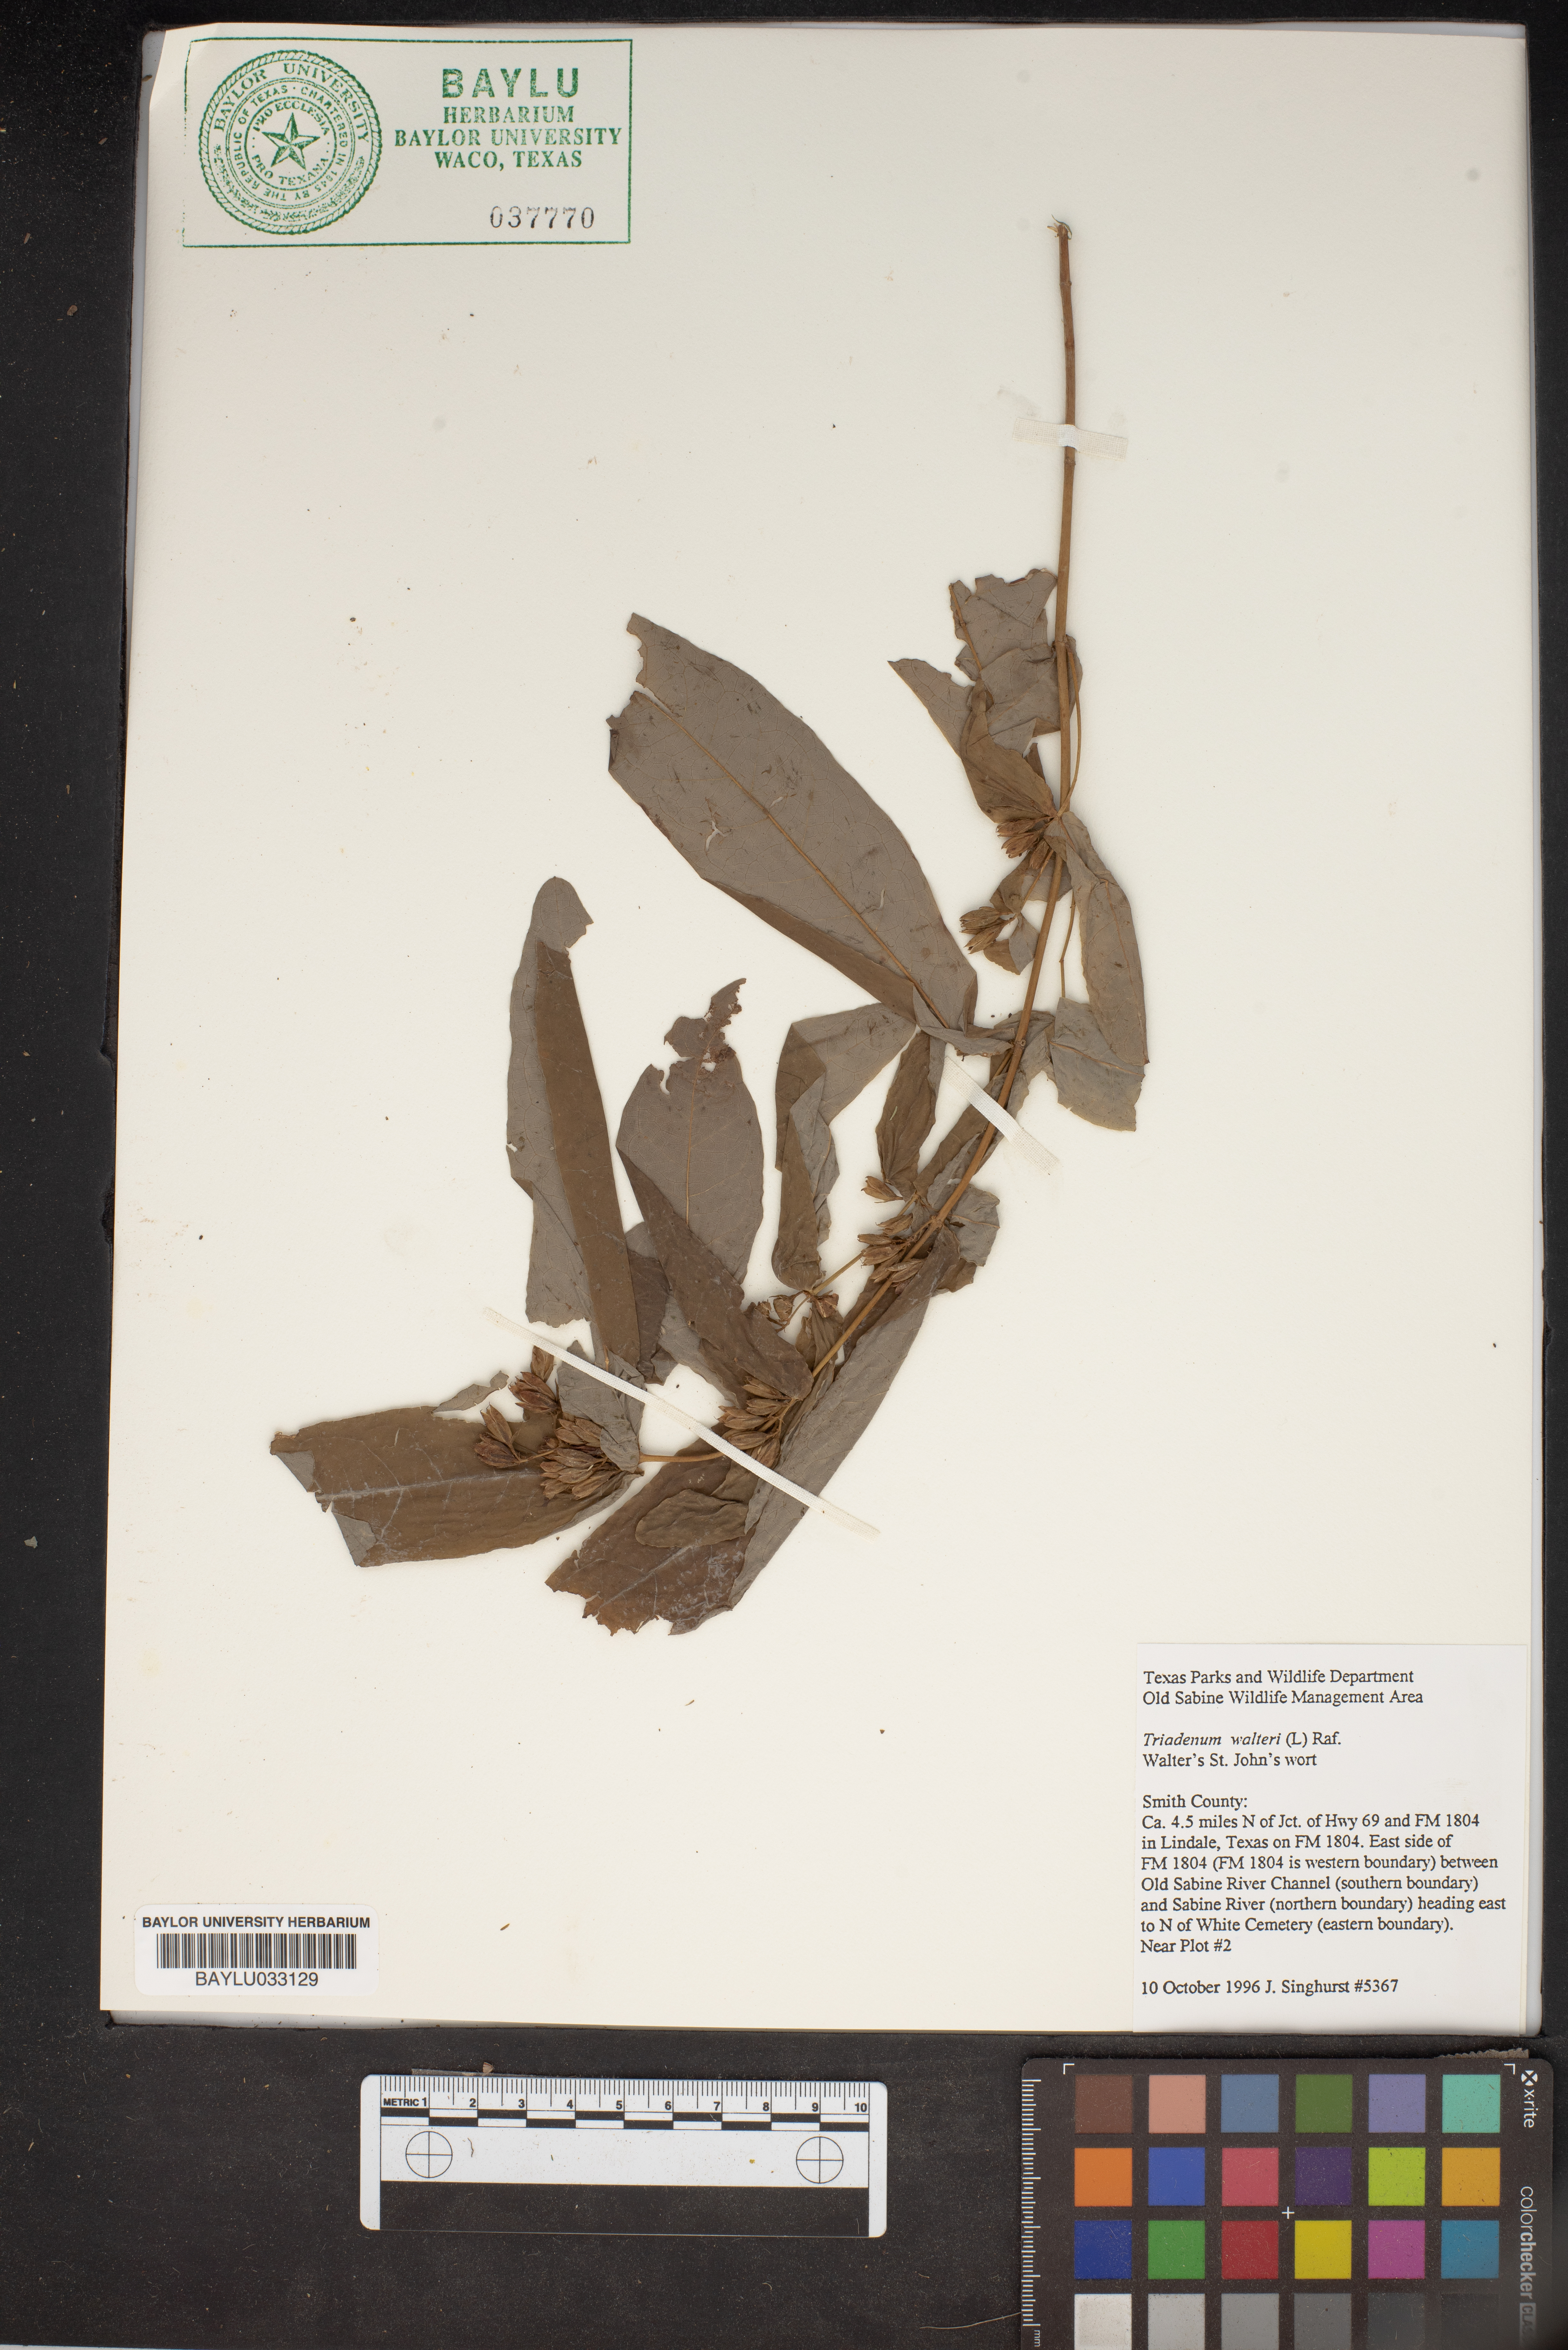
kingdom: Plantae
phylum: Tracheophyta
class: Magnoliopsida
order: Malpighiales
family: Hypericaceae
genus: Triadenum
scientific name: Triadenum walteri
